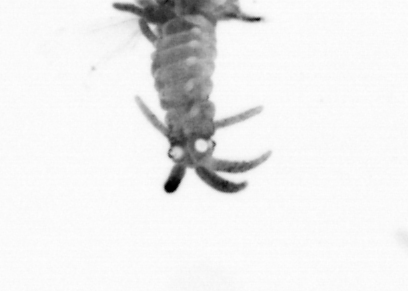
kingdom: Animalia
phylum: Annelida
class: Polychaeta
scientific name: Polychaeta
